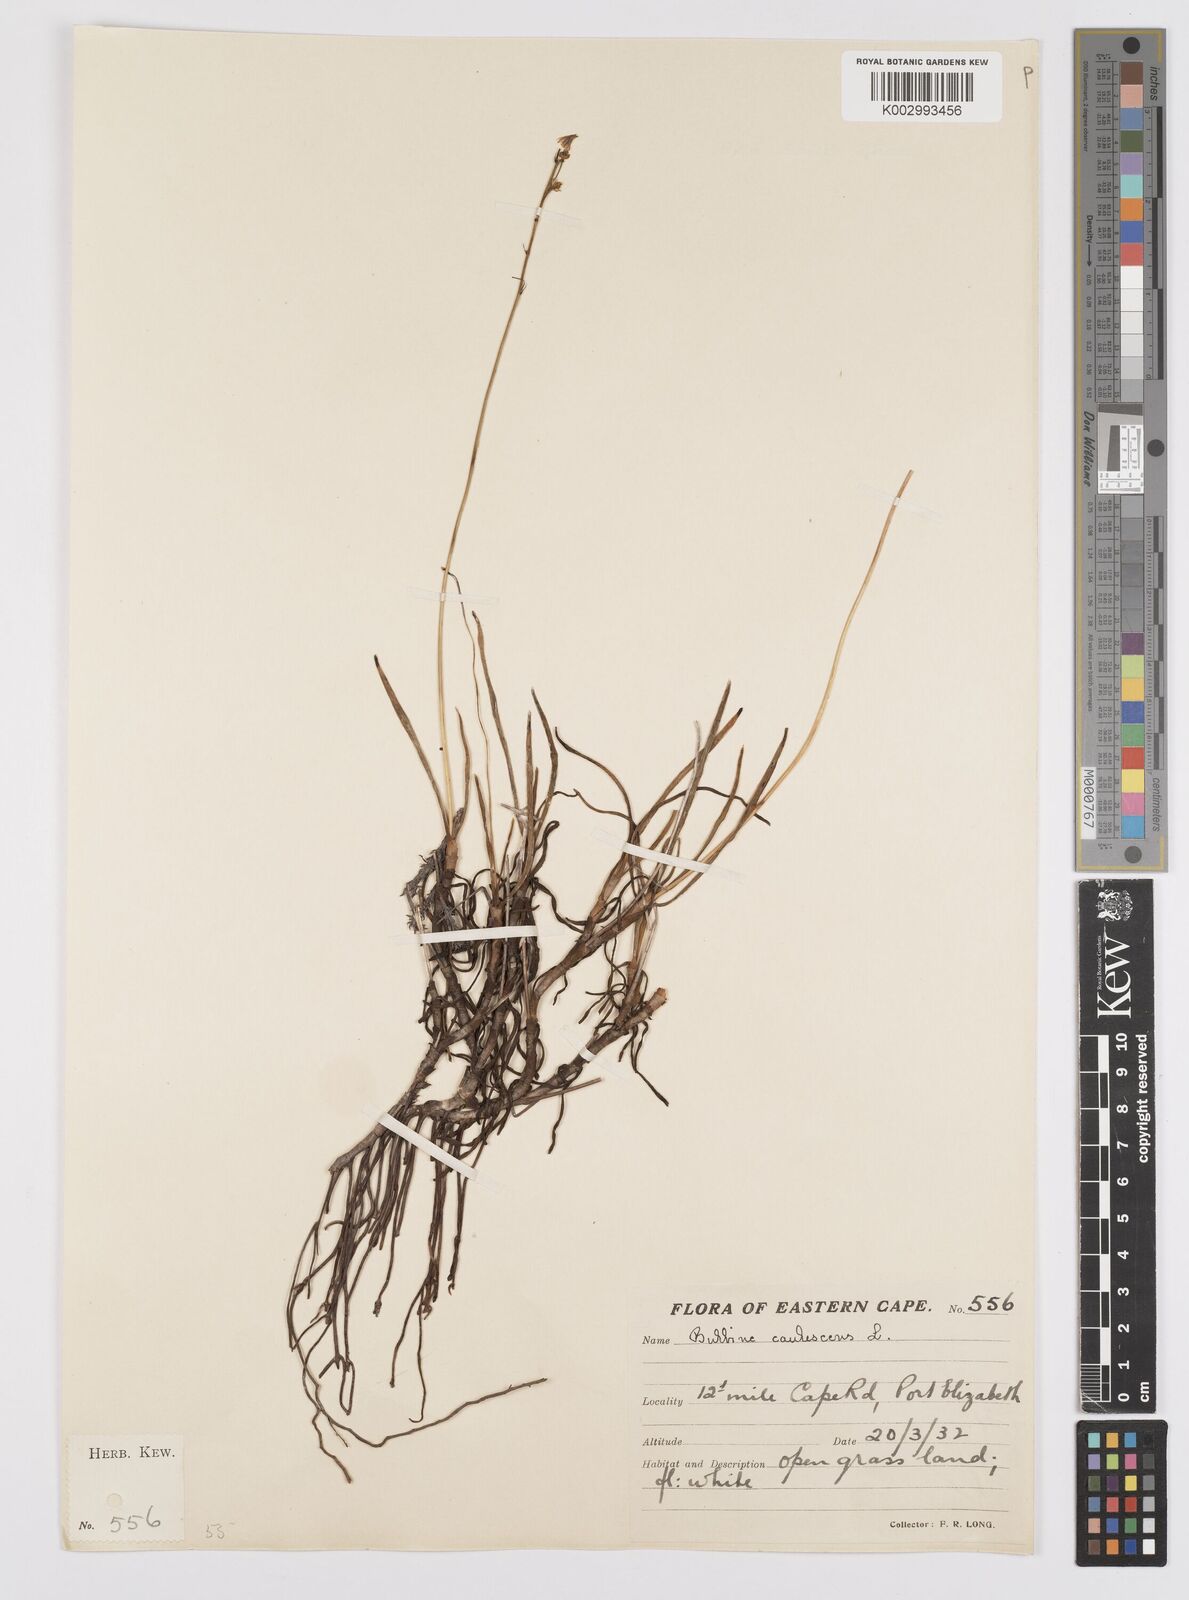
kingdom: Plantae
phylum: Tracheophyta
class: Liliopsida
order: Asparagales
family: Asphodelaceae
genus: Bulbine
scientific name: Bulbine frutescens
